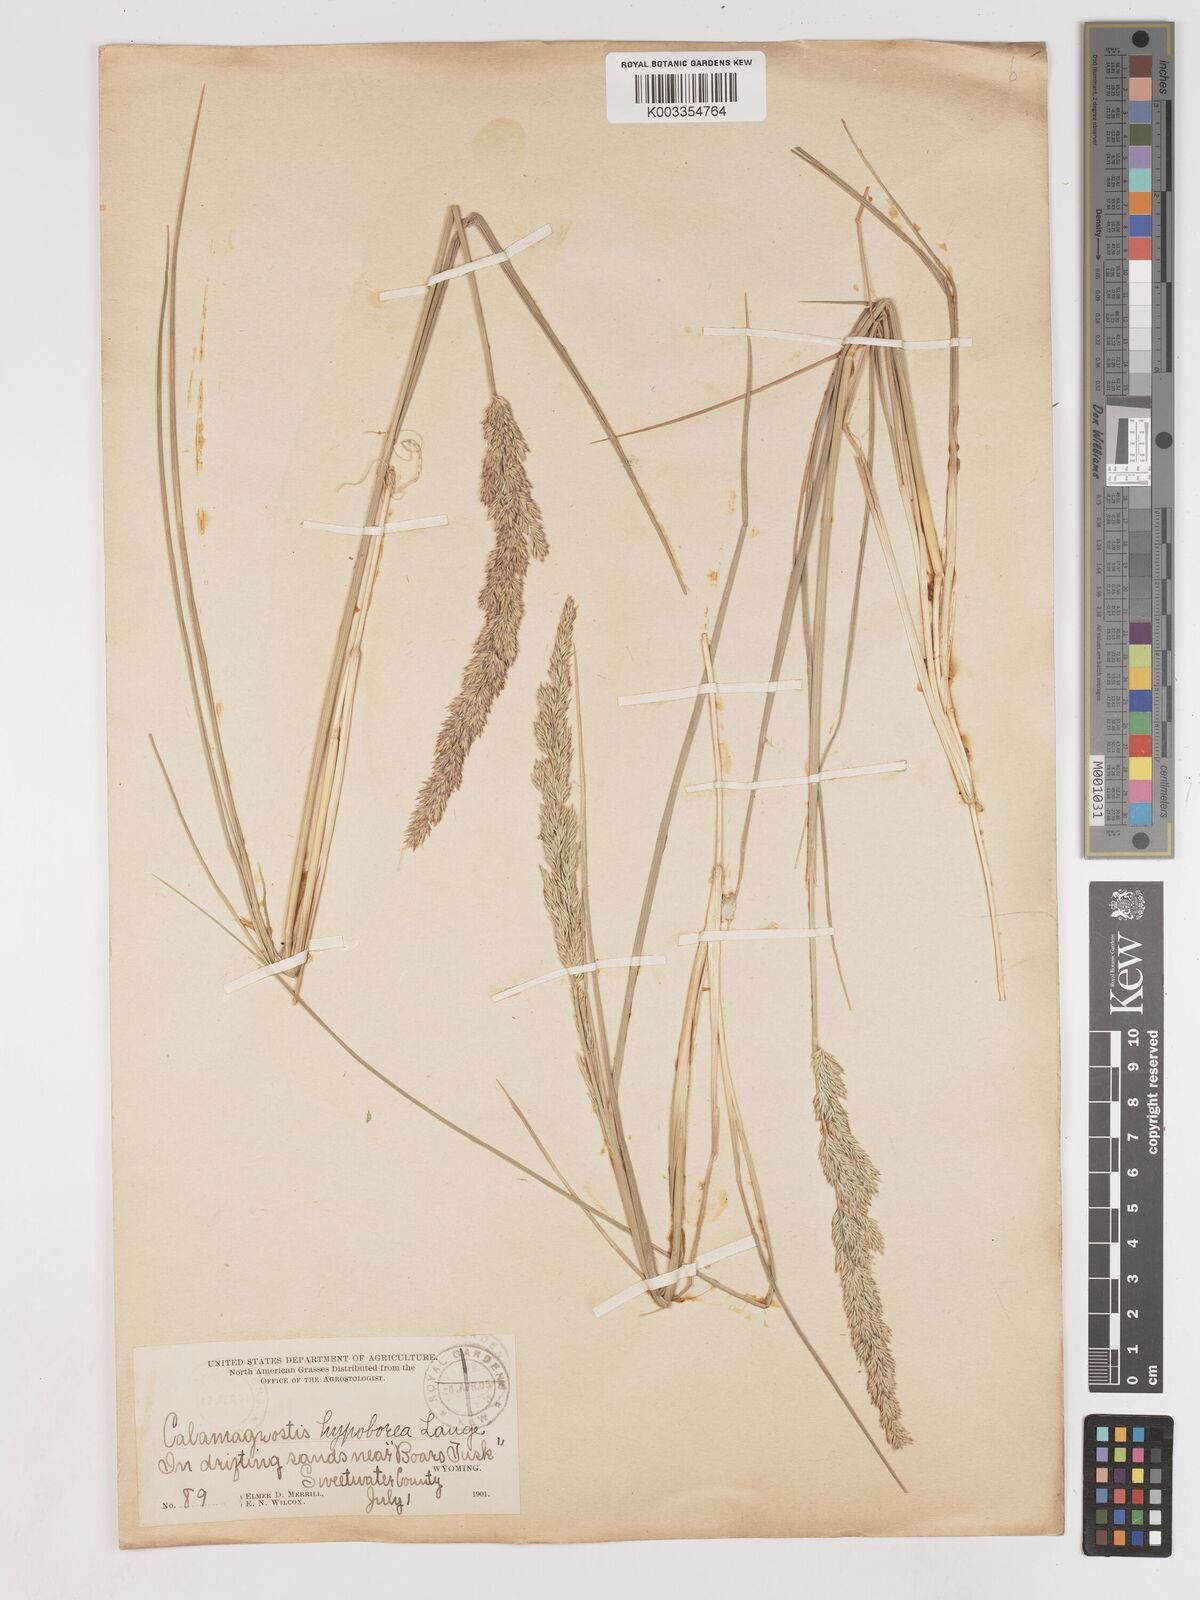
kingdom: Plantae
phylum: Tracheophyta
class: Liliopsida
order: Poales
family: Poaceae
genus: Cinnagrostis
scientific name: Cinnagrostis recta
